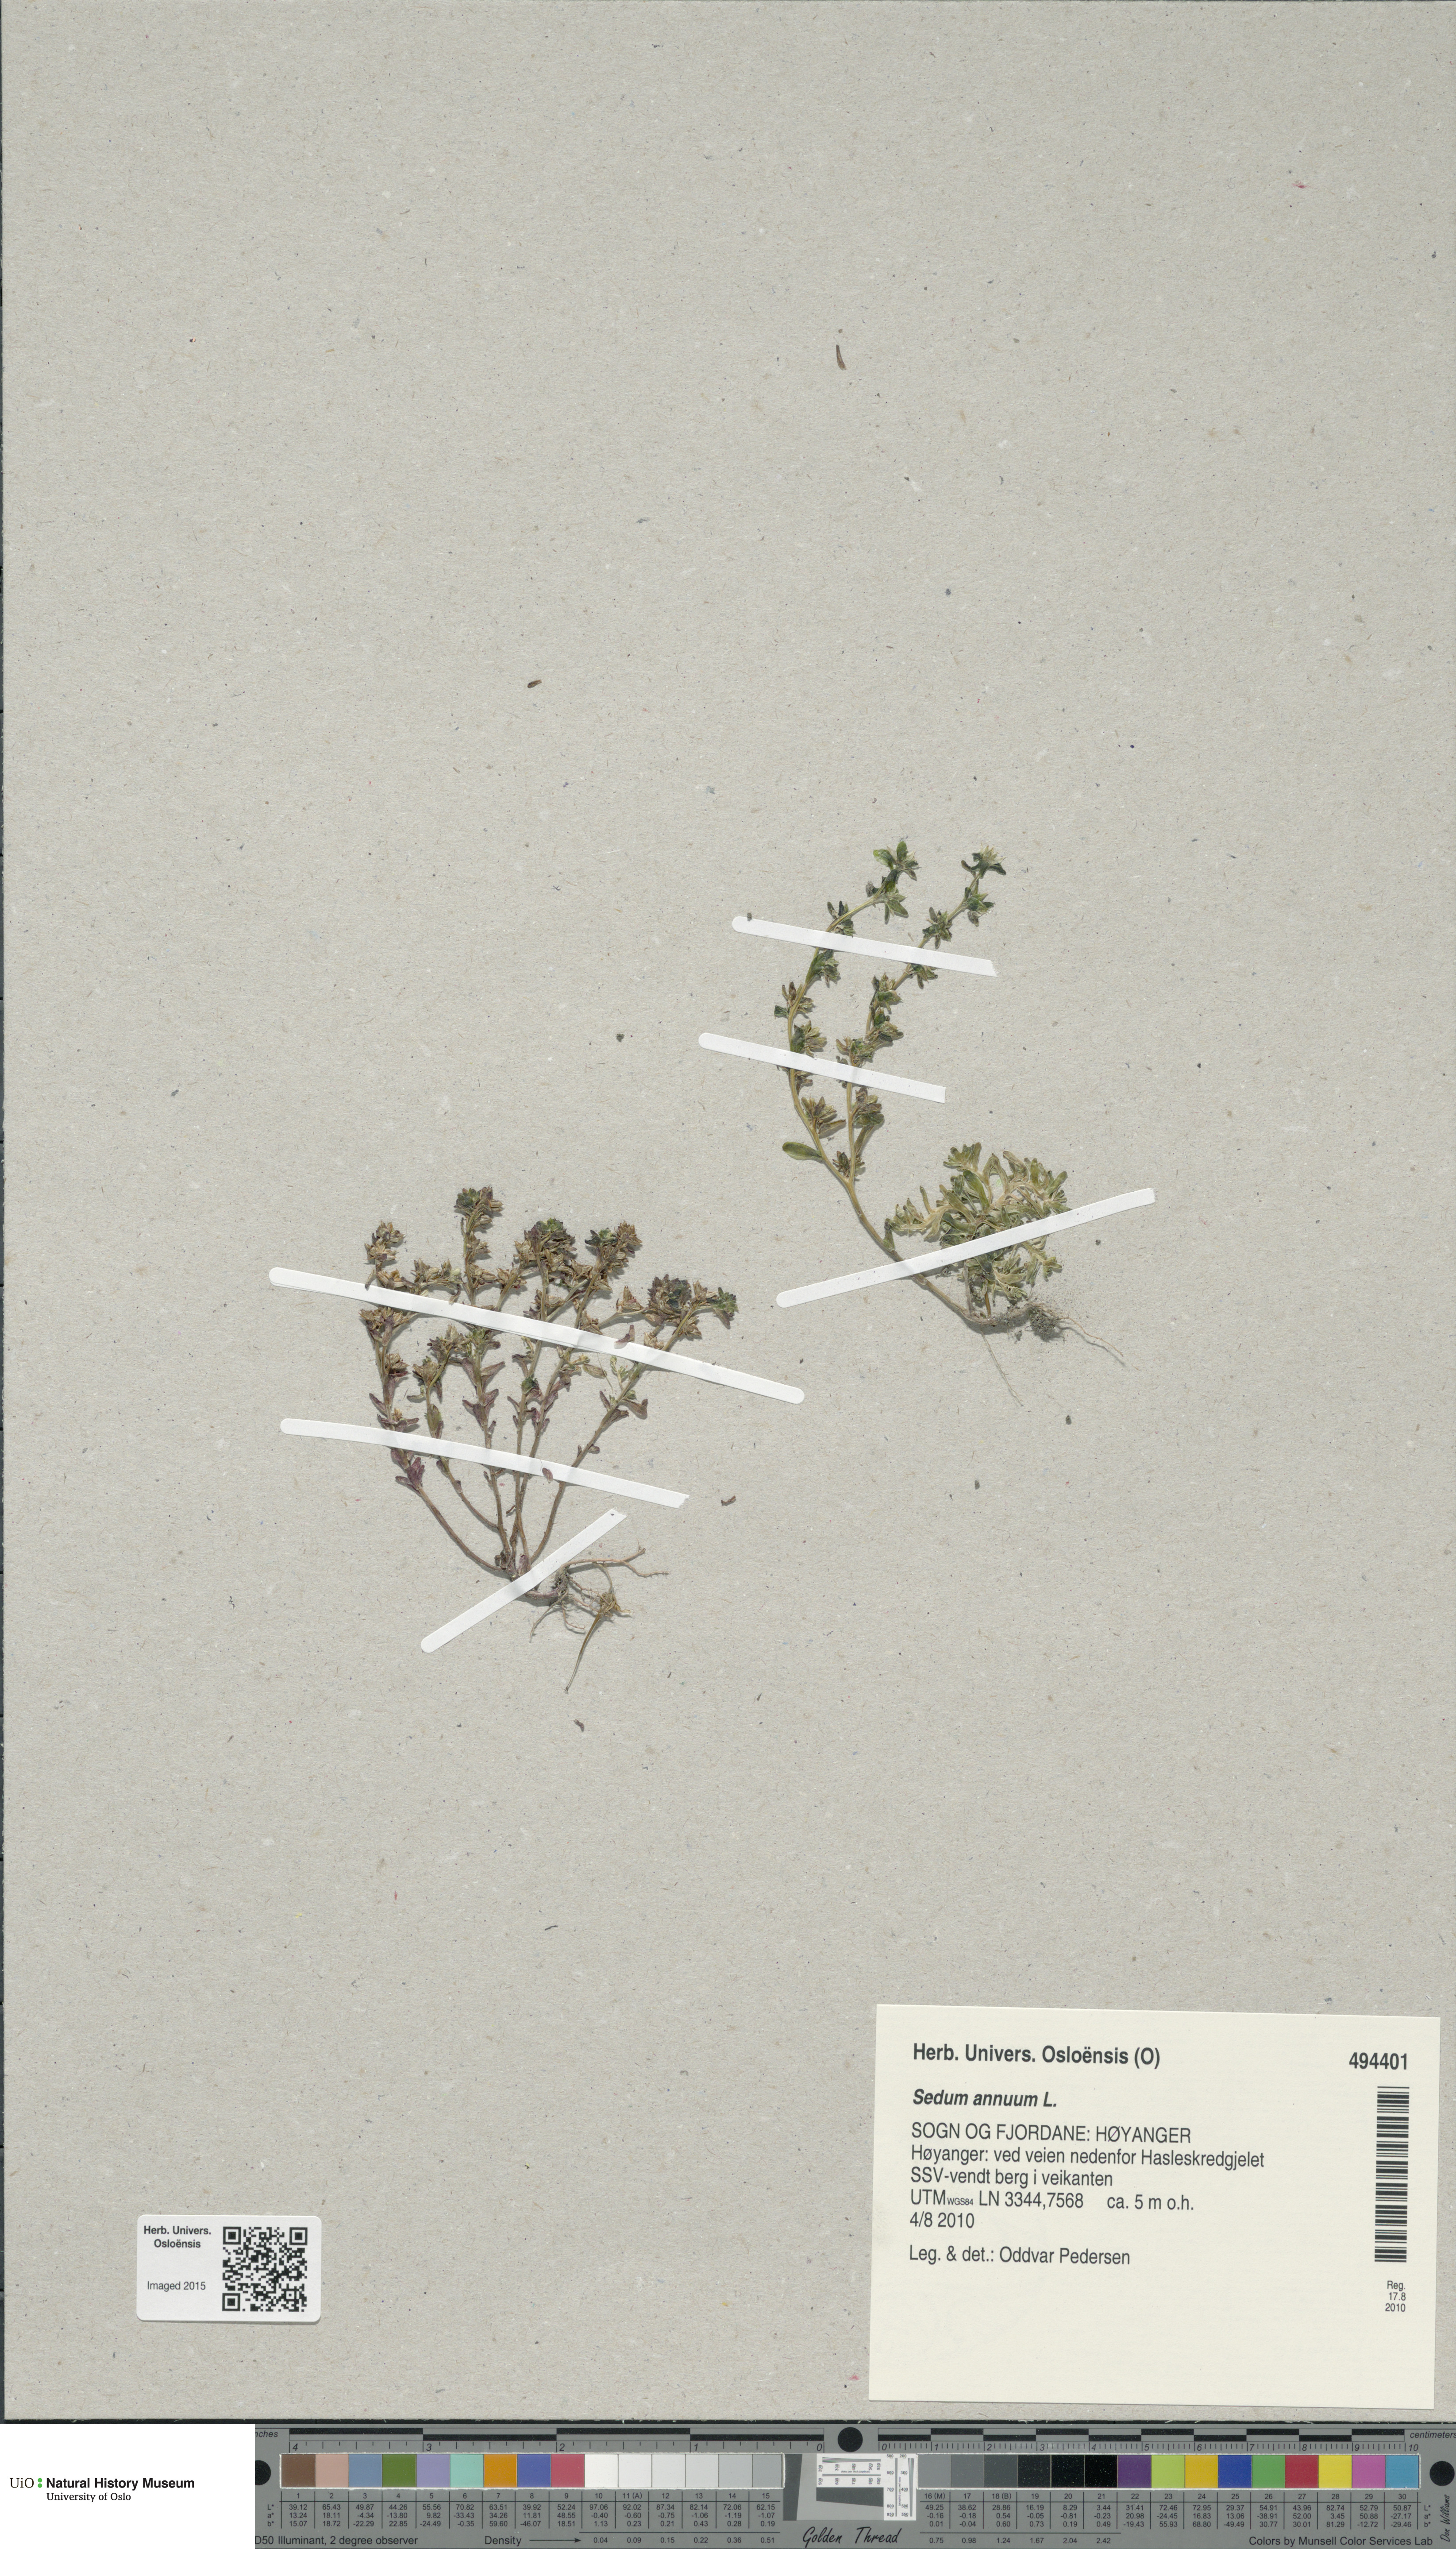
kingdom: Plantae
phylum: Tracheophyta
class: Magnoliopsida
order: Saxifragales
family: Crassulaceae
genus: Sedum
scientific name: Sedum annuum
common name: Annual stonecrop
